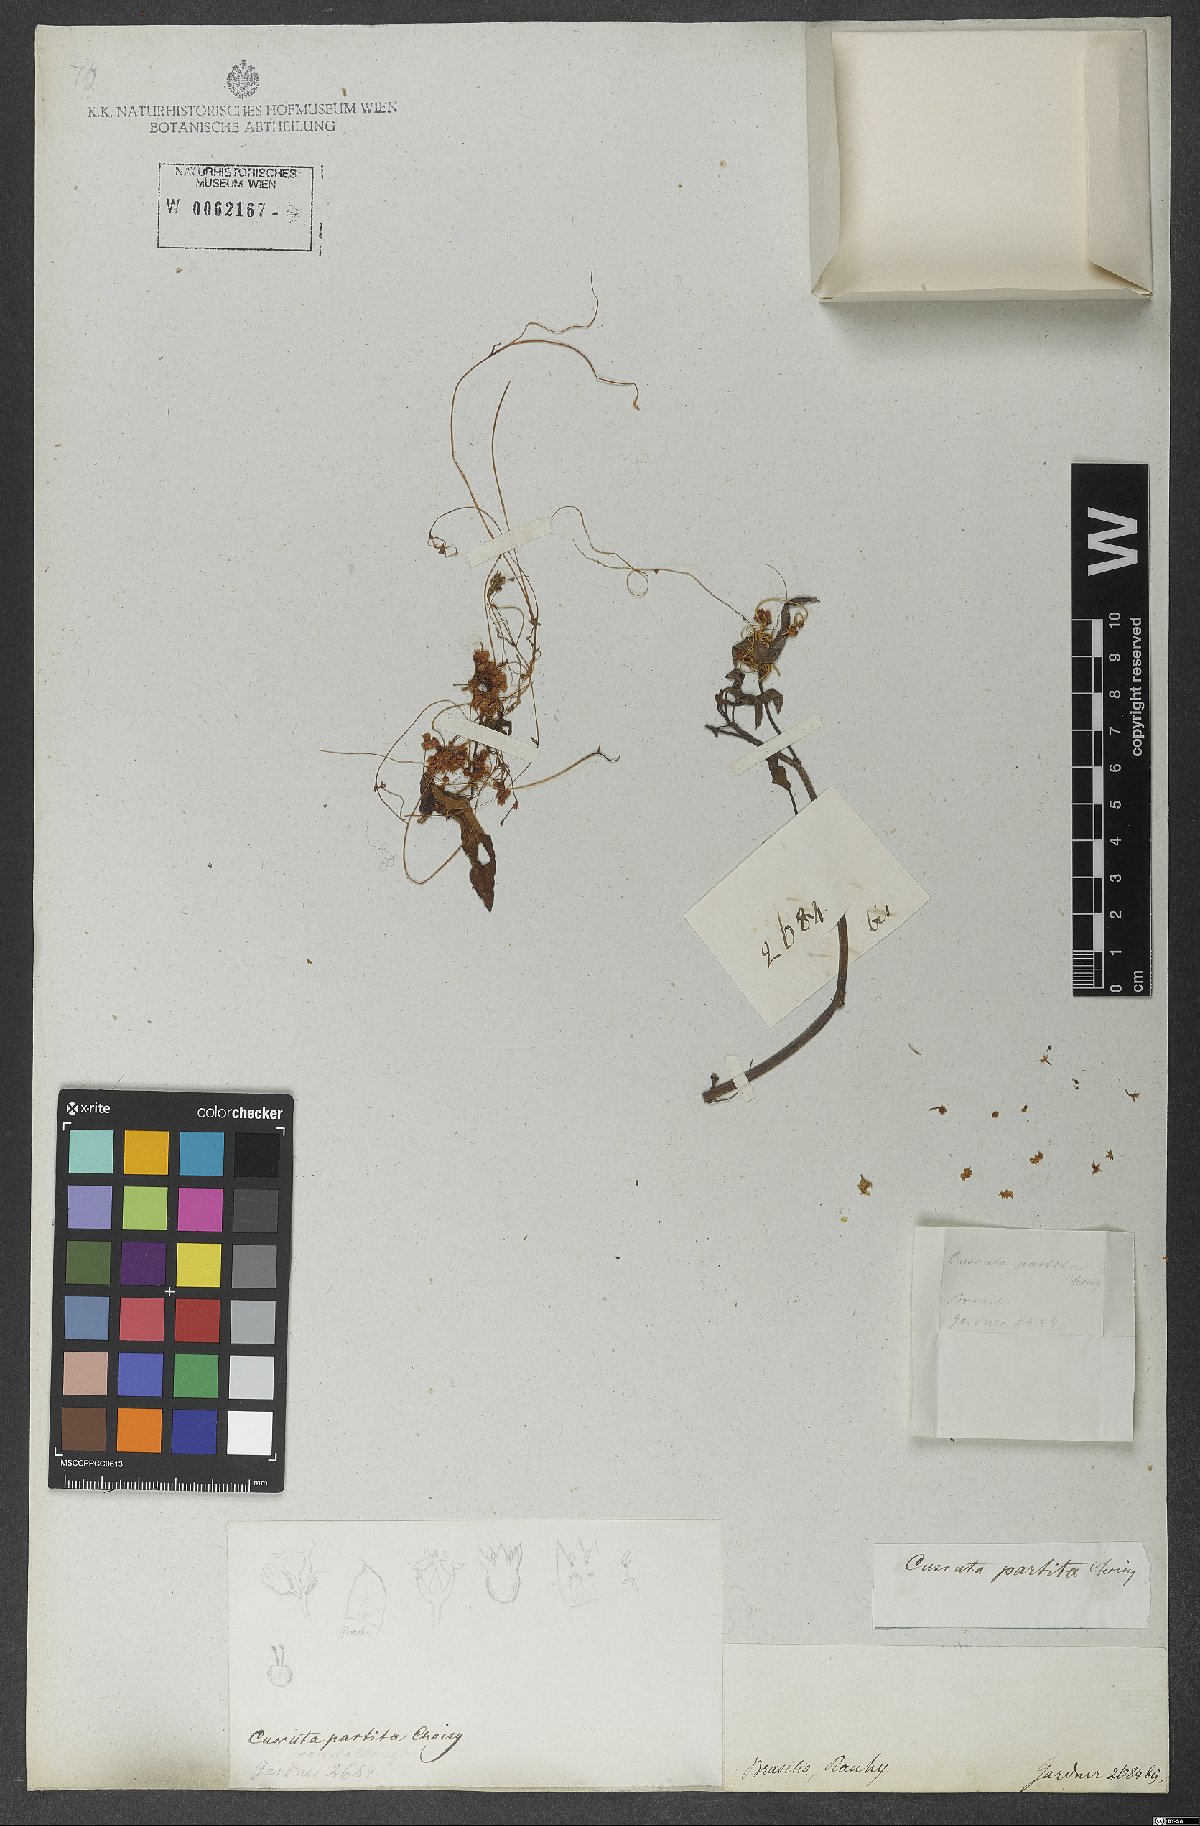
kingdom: Plantae
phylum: Tracheophyta
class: Magnoliopsida
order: Solanales
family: Convolvulaceae
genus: Cuscuta
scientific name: Cuscuta partita
